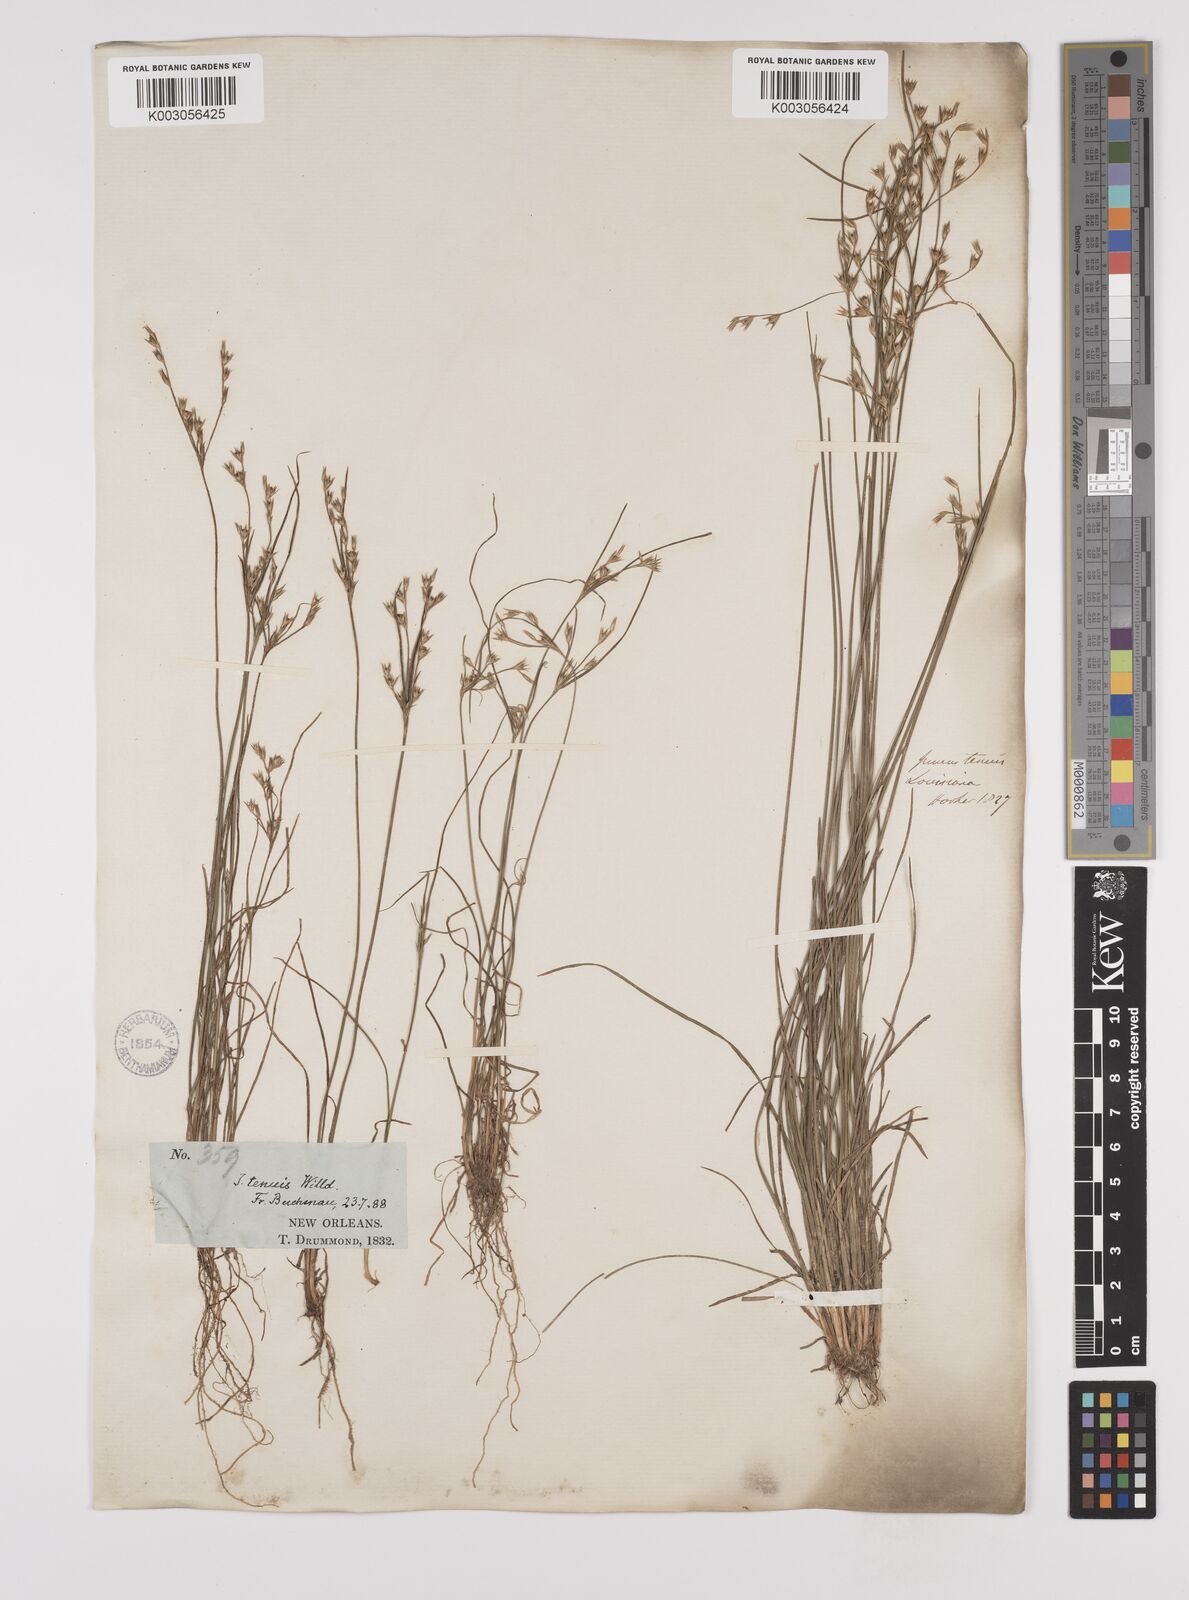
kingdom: Plantae
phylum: Tracheophyta
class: Liliopsida
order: Poales
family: Juncaceae
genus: Juncus
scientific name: Juncus tenuis
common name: Slender rush
